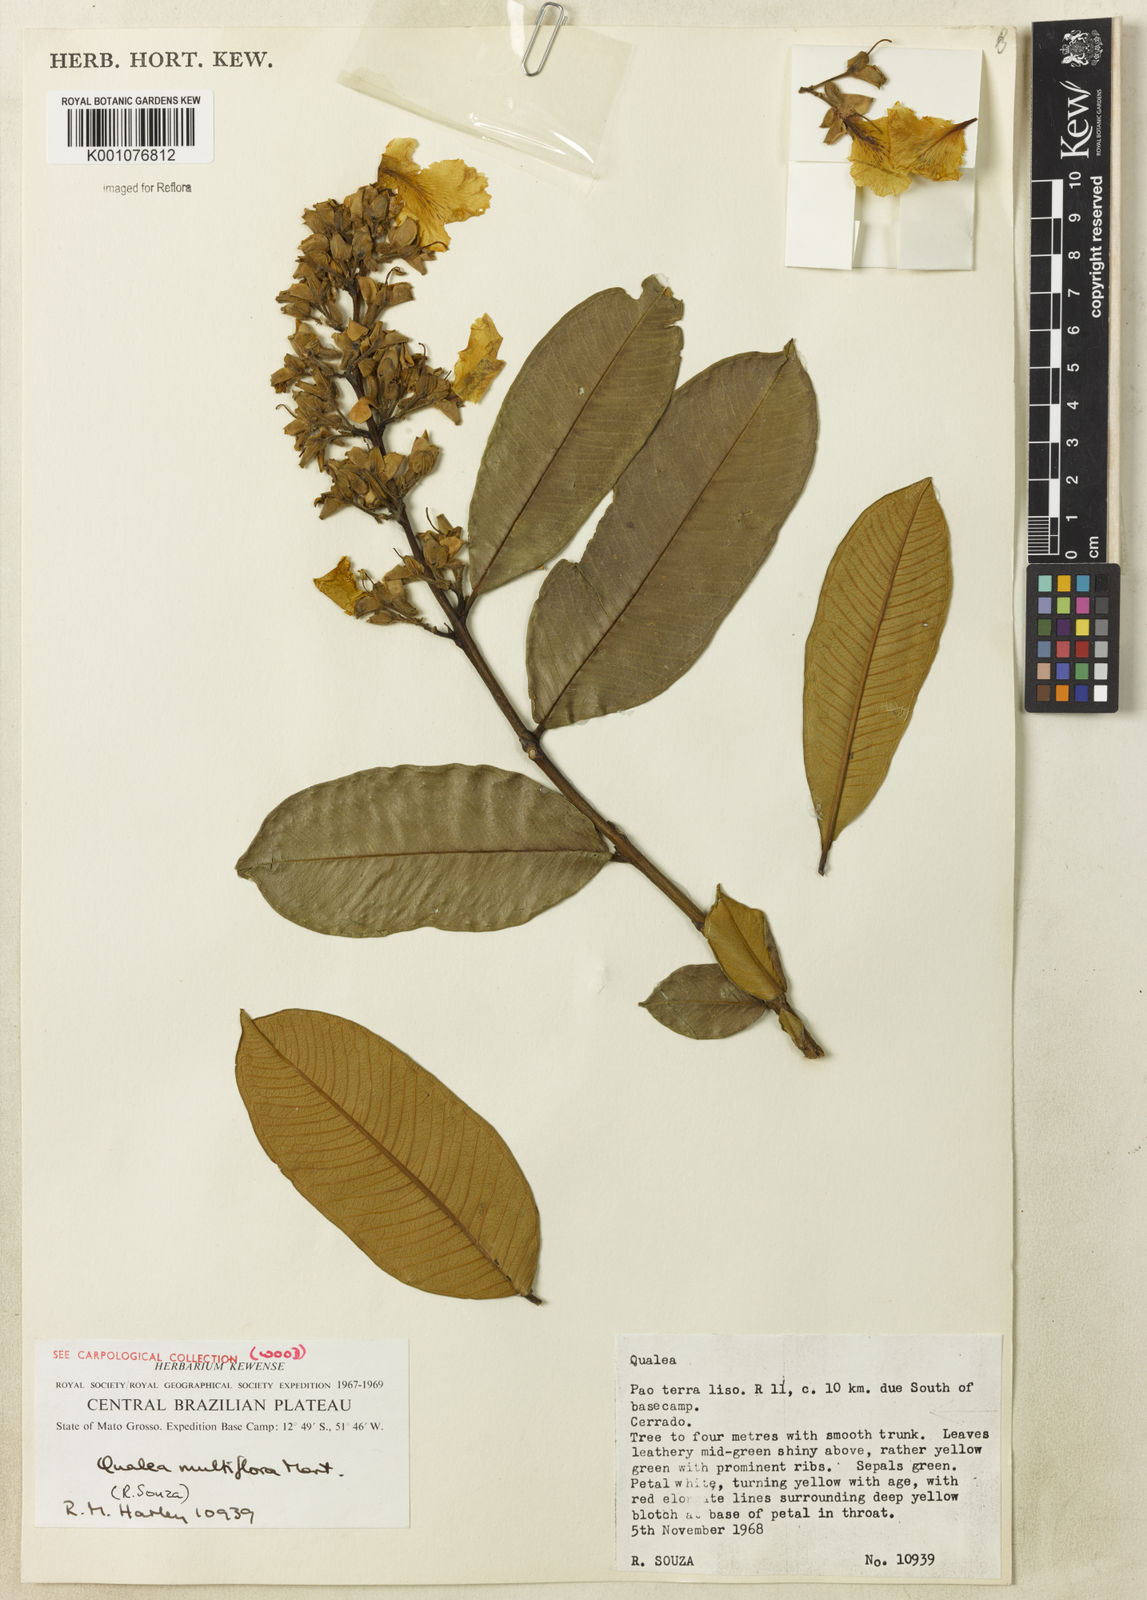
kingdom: Plantae
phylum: Tracheophyta
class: Magnoliopsida
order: Myrtales
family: Vochysiaceae
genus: Qualea
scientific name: Qualea multiflora
